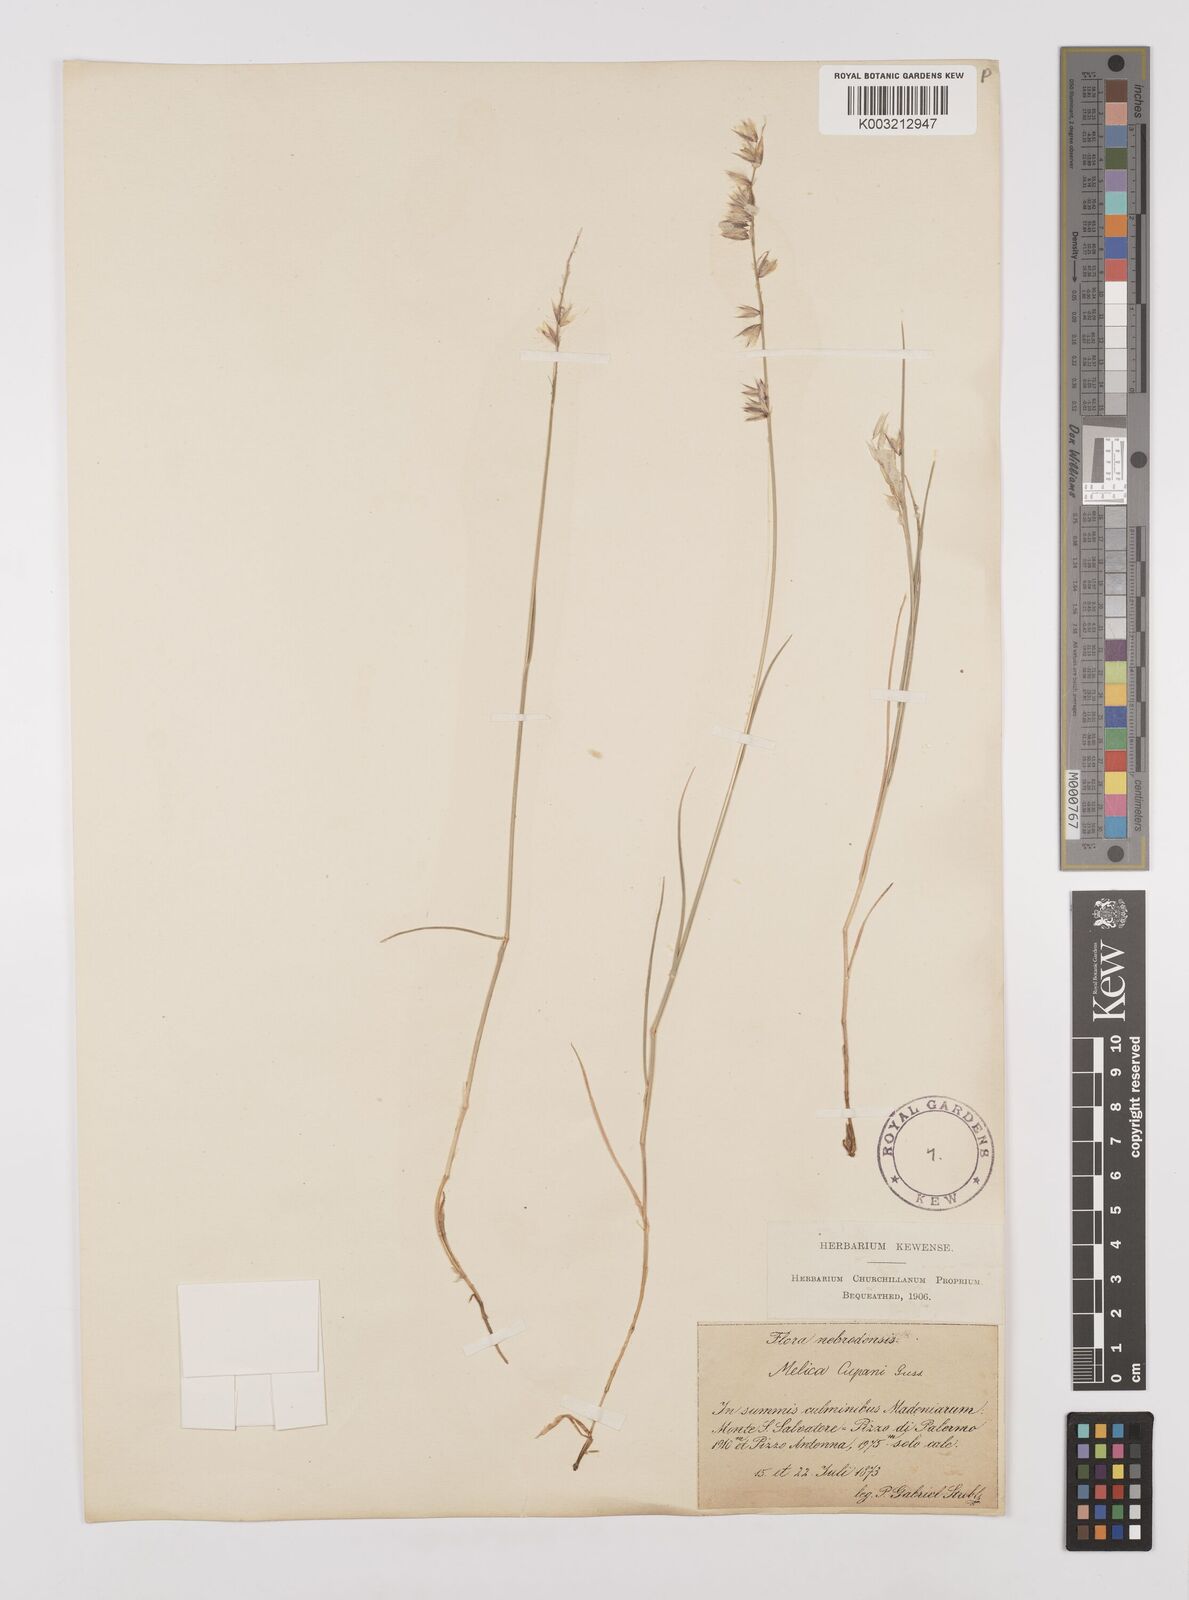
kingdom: Plantae
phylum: Tracheophyta
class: Liliopsida
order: Poales
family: Poaceae
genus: Melica
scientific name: Melica cupani
